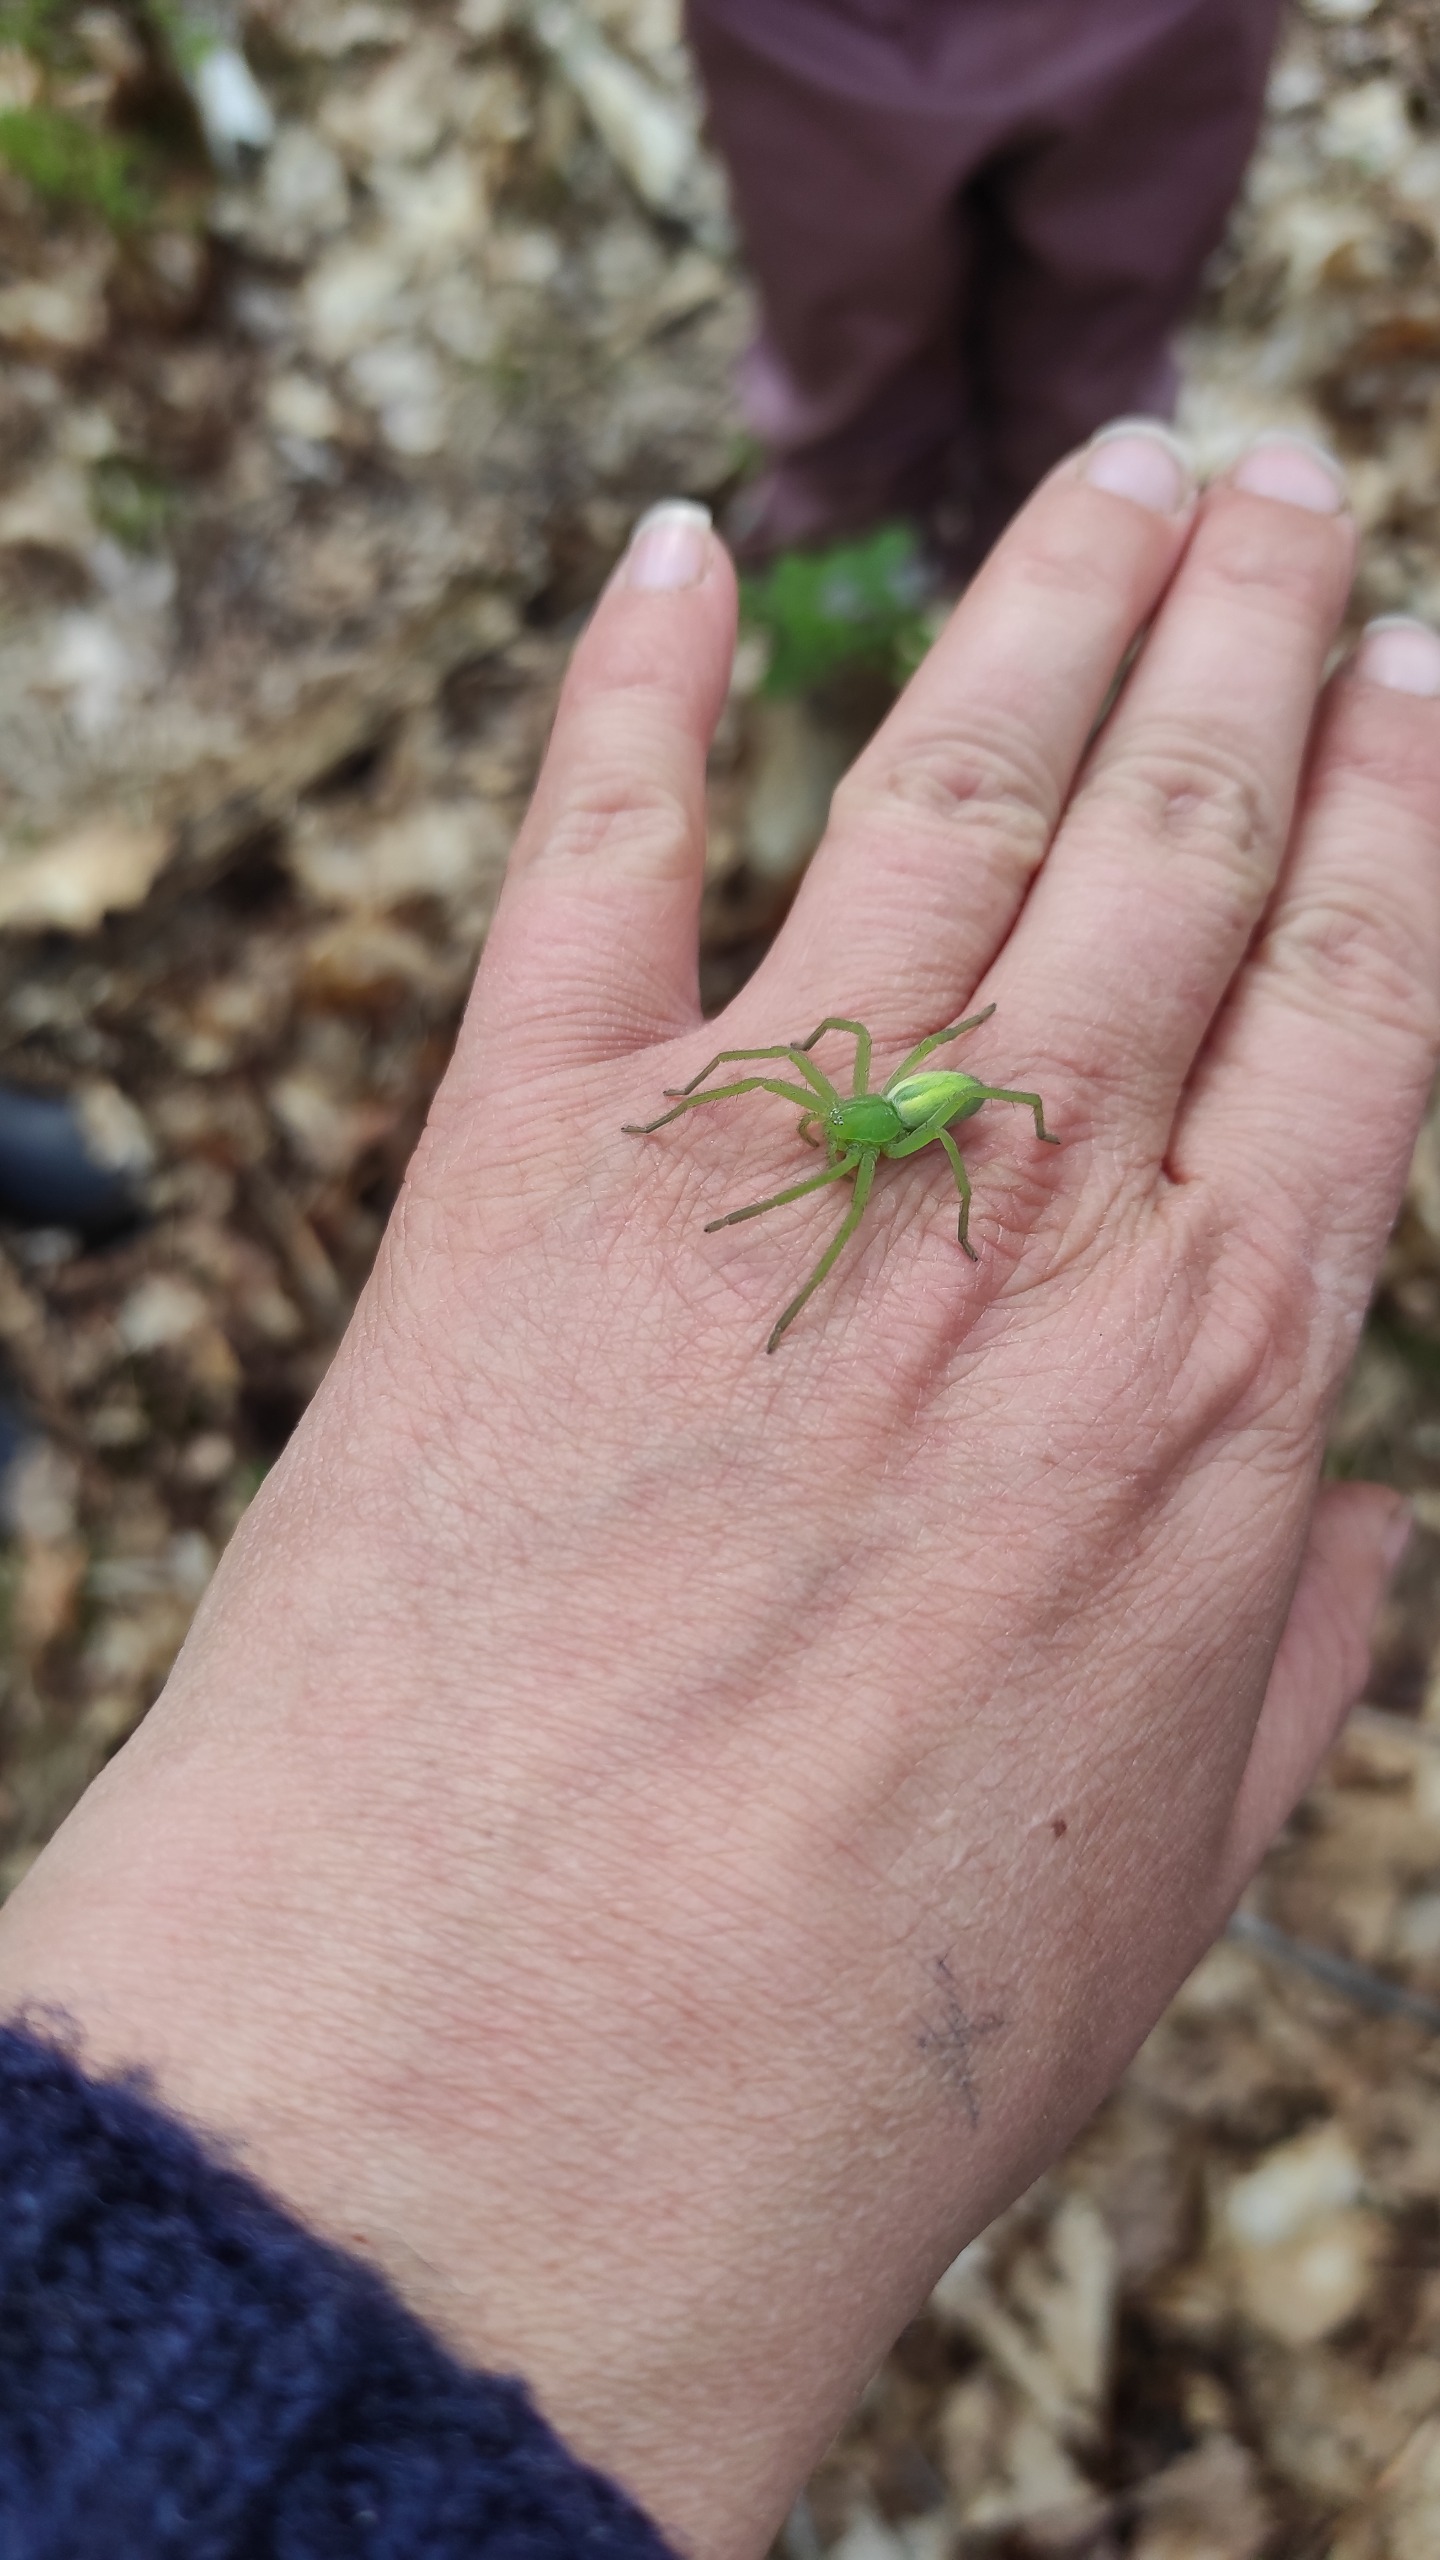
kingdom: Animalia
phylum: Arthropoda
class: Arachnida
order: Araneae
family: Sparassidae
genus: Micrommata
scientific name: Micrommata virescens
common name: Smaragdedderkop
